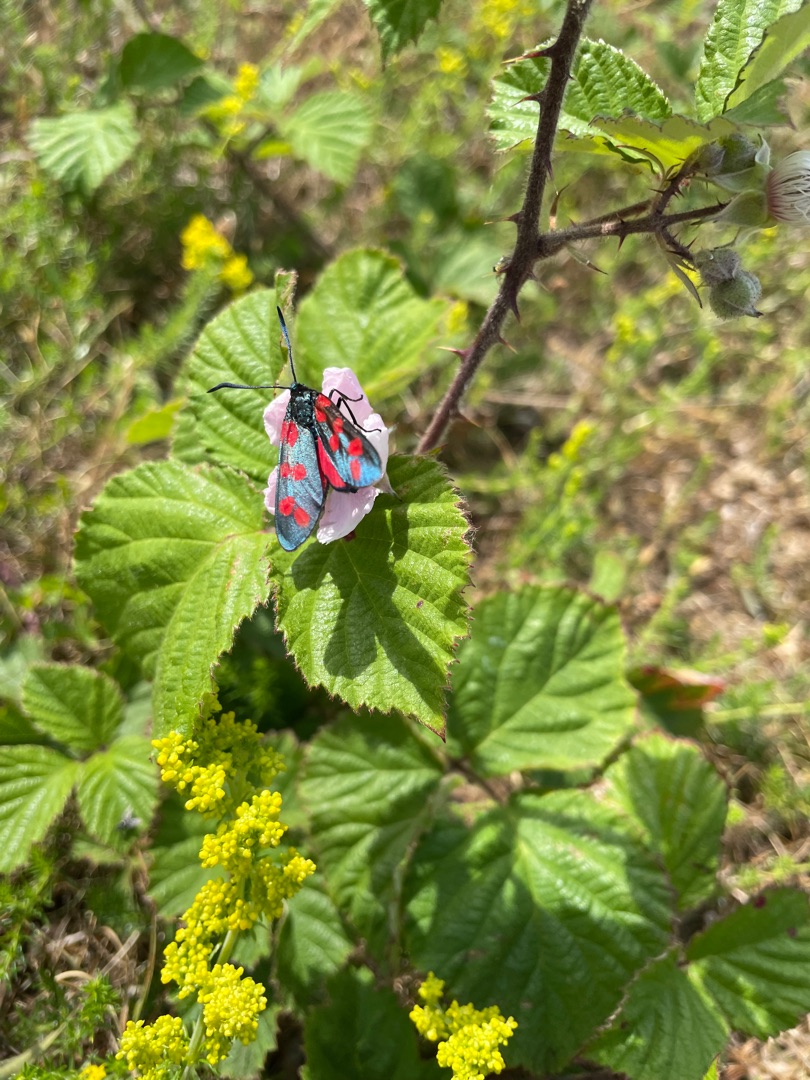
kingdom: Animalia
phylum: Arthropoda
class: Insecta
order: Lepidoptera
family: Zygaenidae
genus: Zygaena
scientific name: Zygaena filipendulae
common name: Seksplettet køllesværmer
